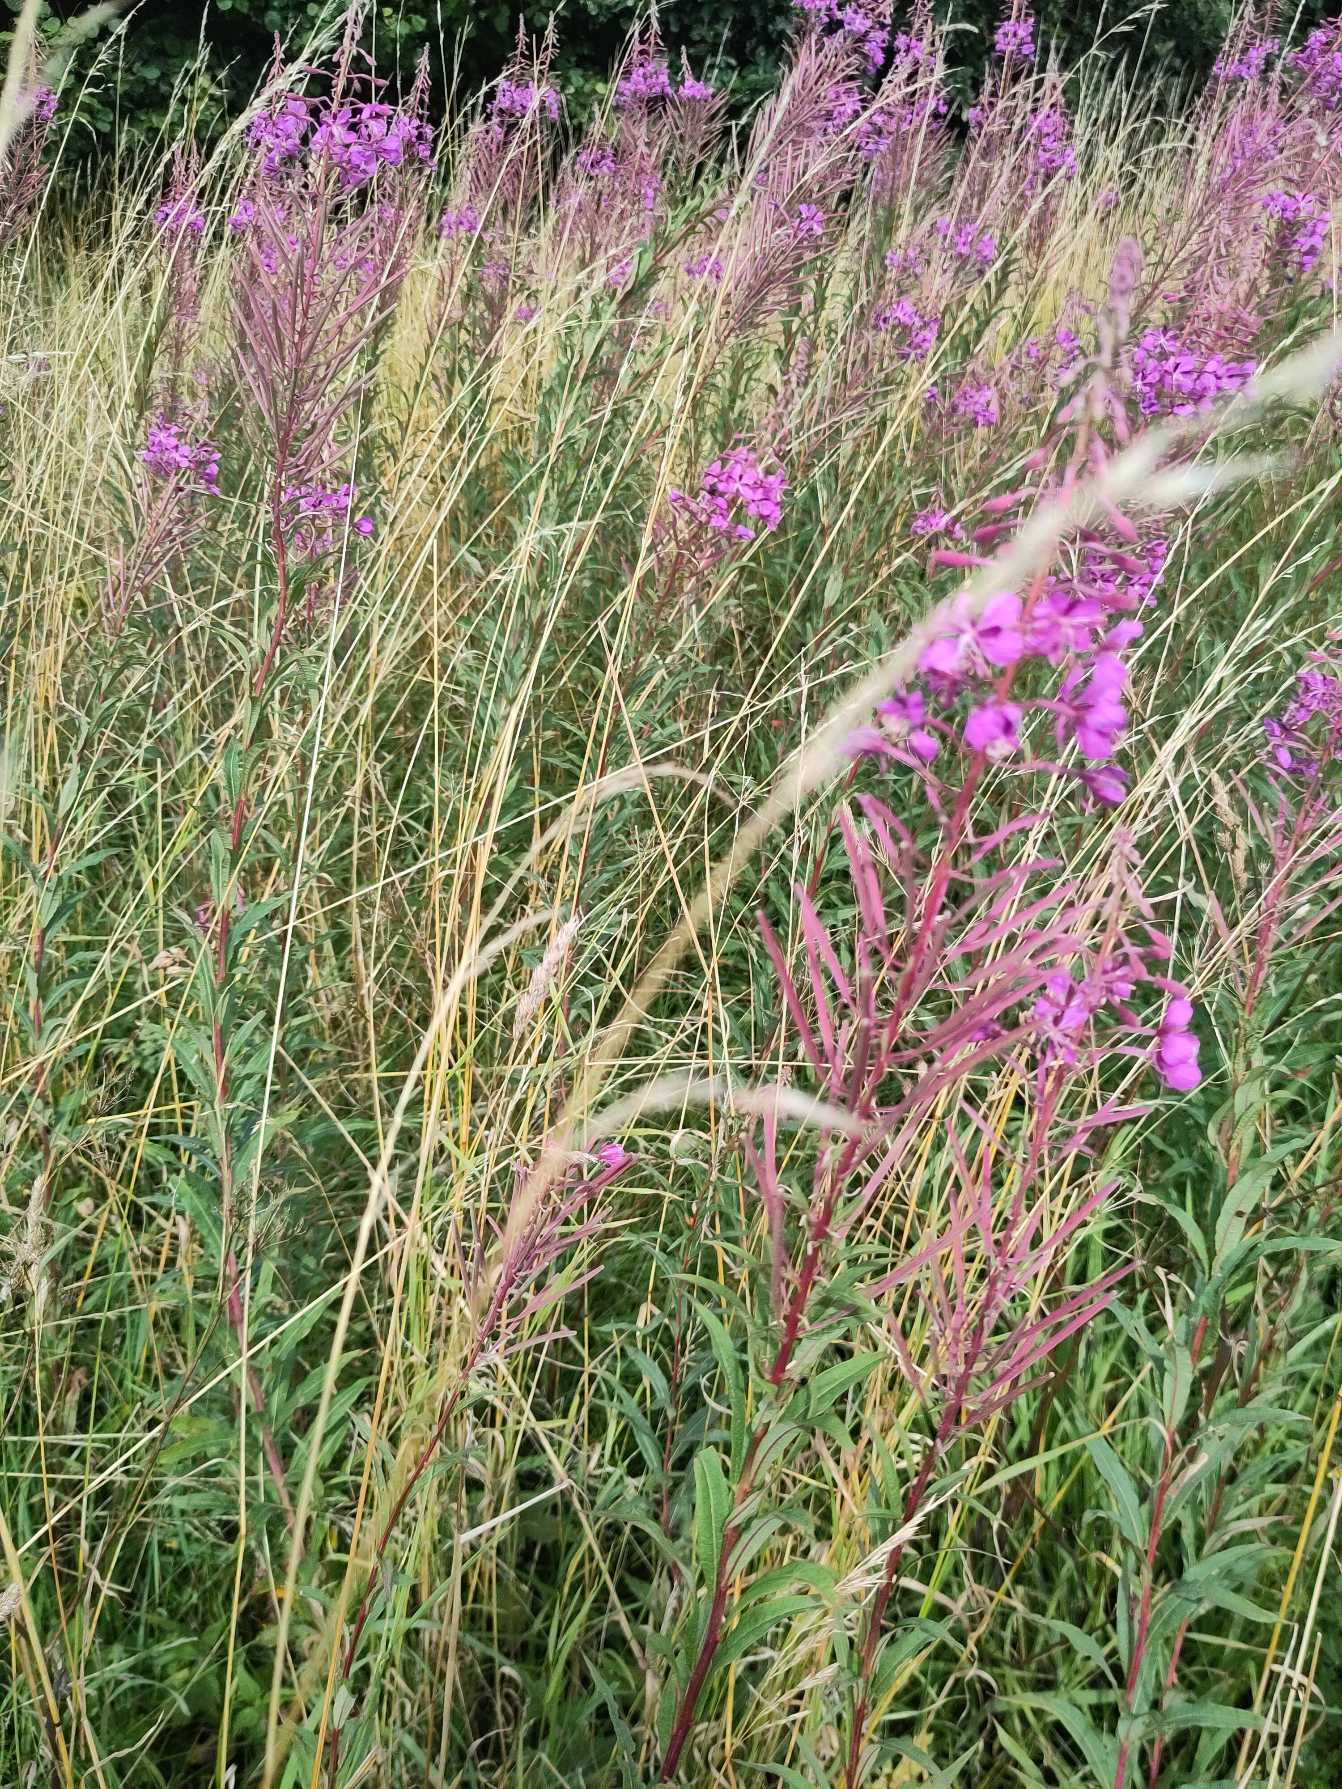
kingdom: Plantae
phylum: Tracheophyta
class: Magnoliopsida
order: Myrtales
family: Onagraceae
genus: Chamaenerion
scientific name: Chamaenerion angustifolium
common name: Gederams
